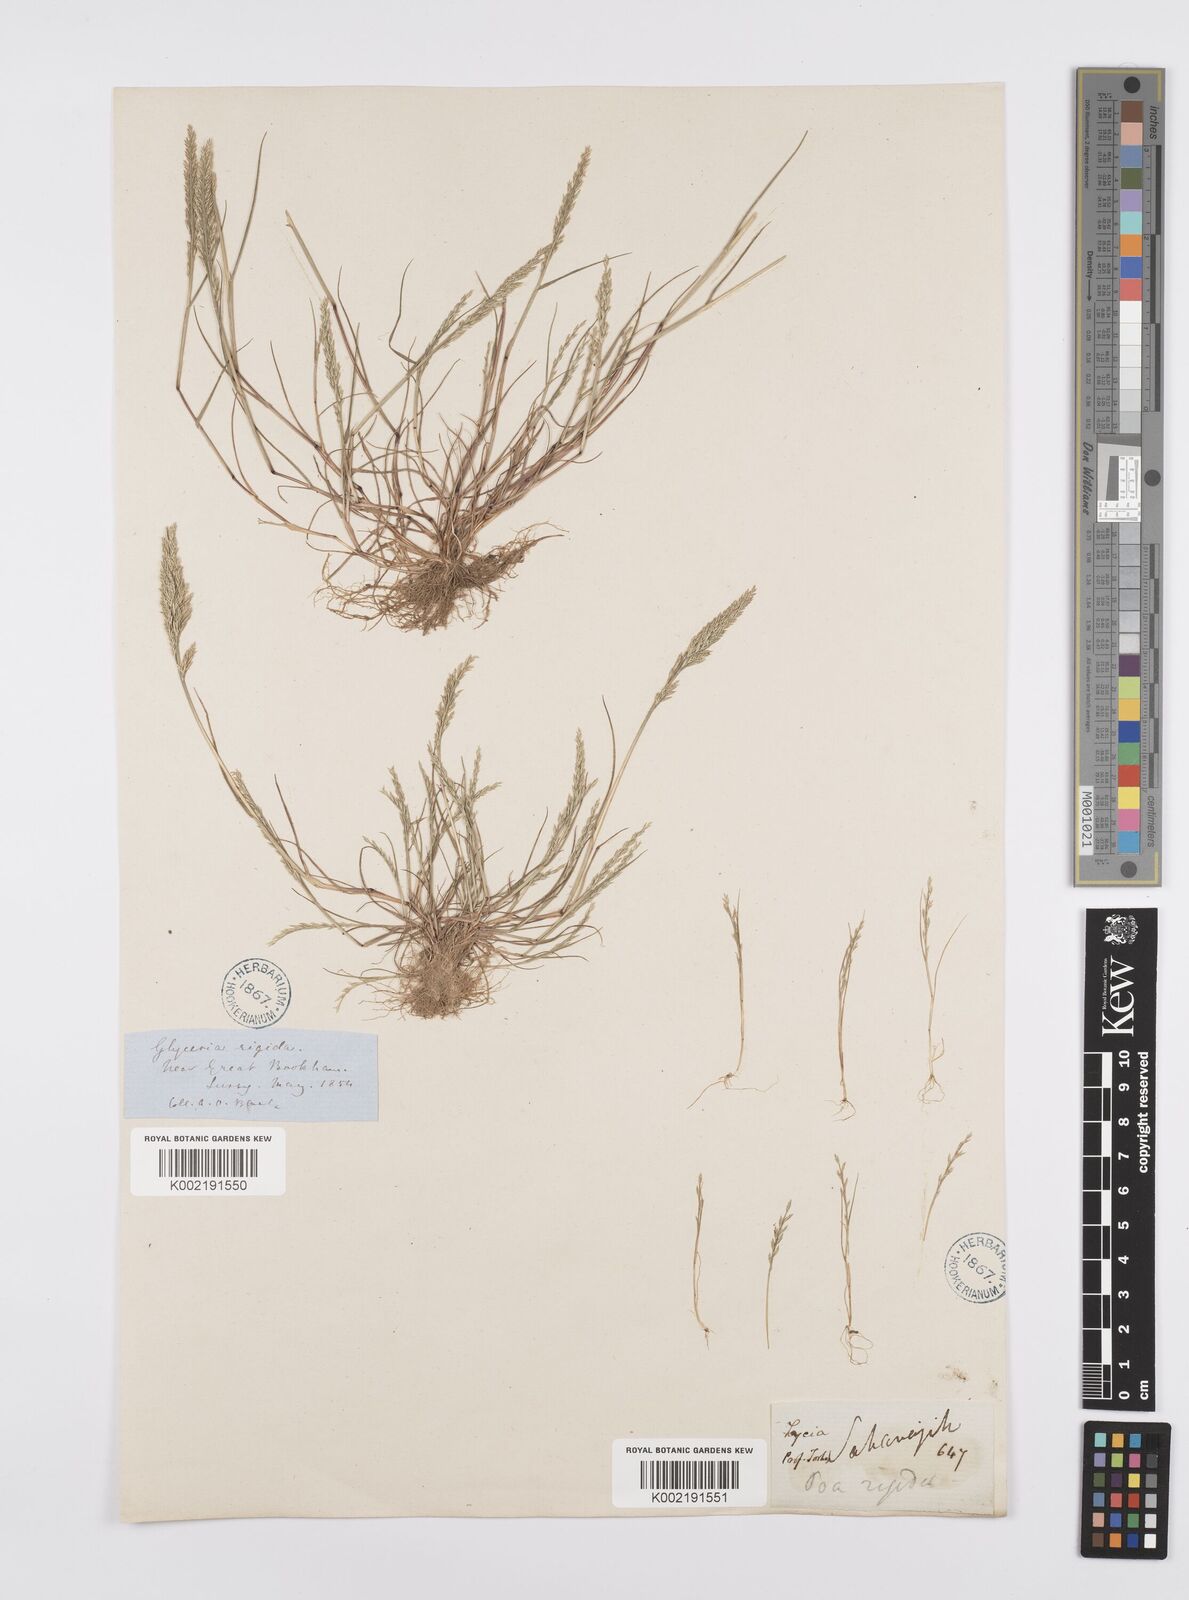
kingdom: Plantae
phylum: Tracheophyta
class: Liliopsida
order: Poales
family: Poaceae
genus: Catapodium
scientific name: Catapodium rigidum
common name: Fern-grass
